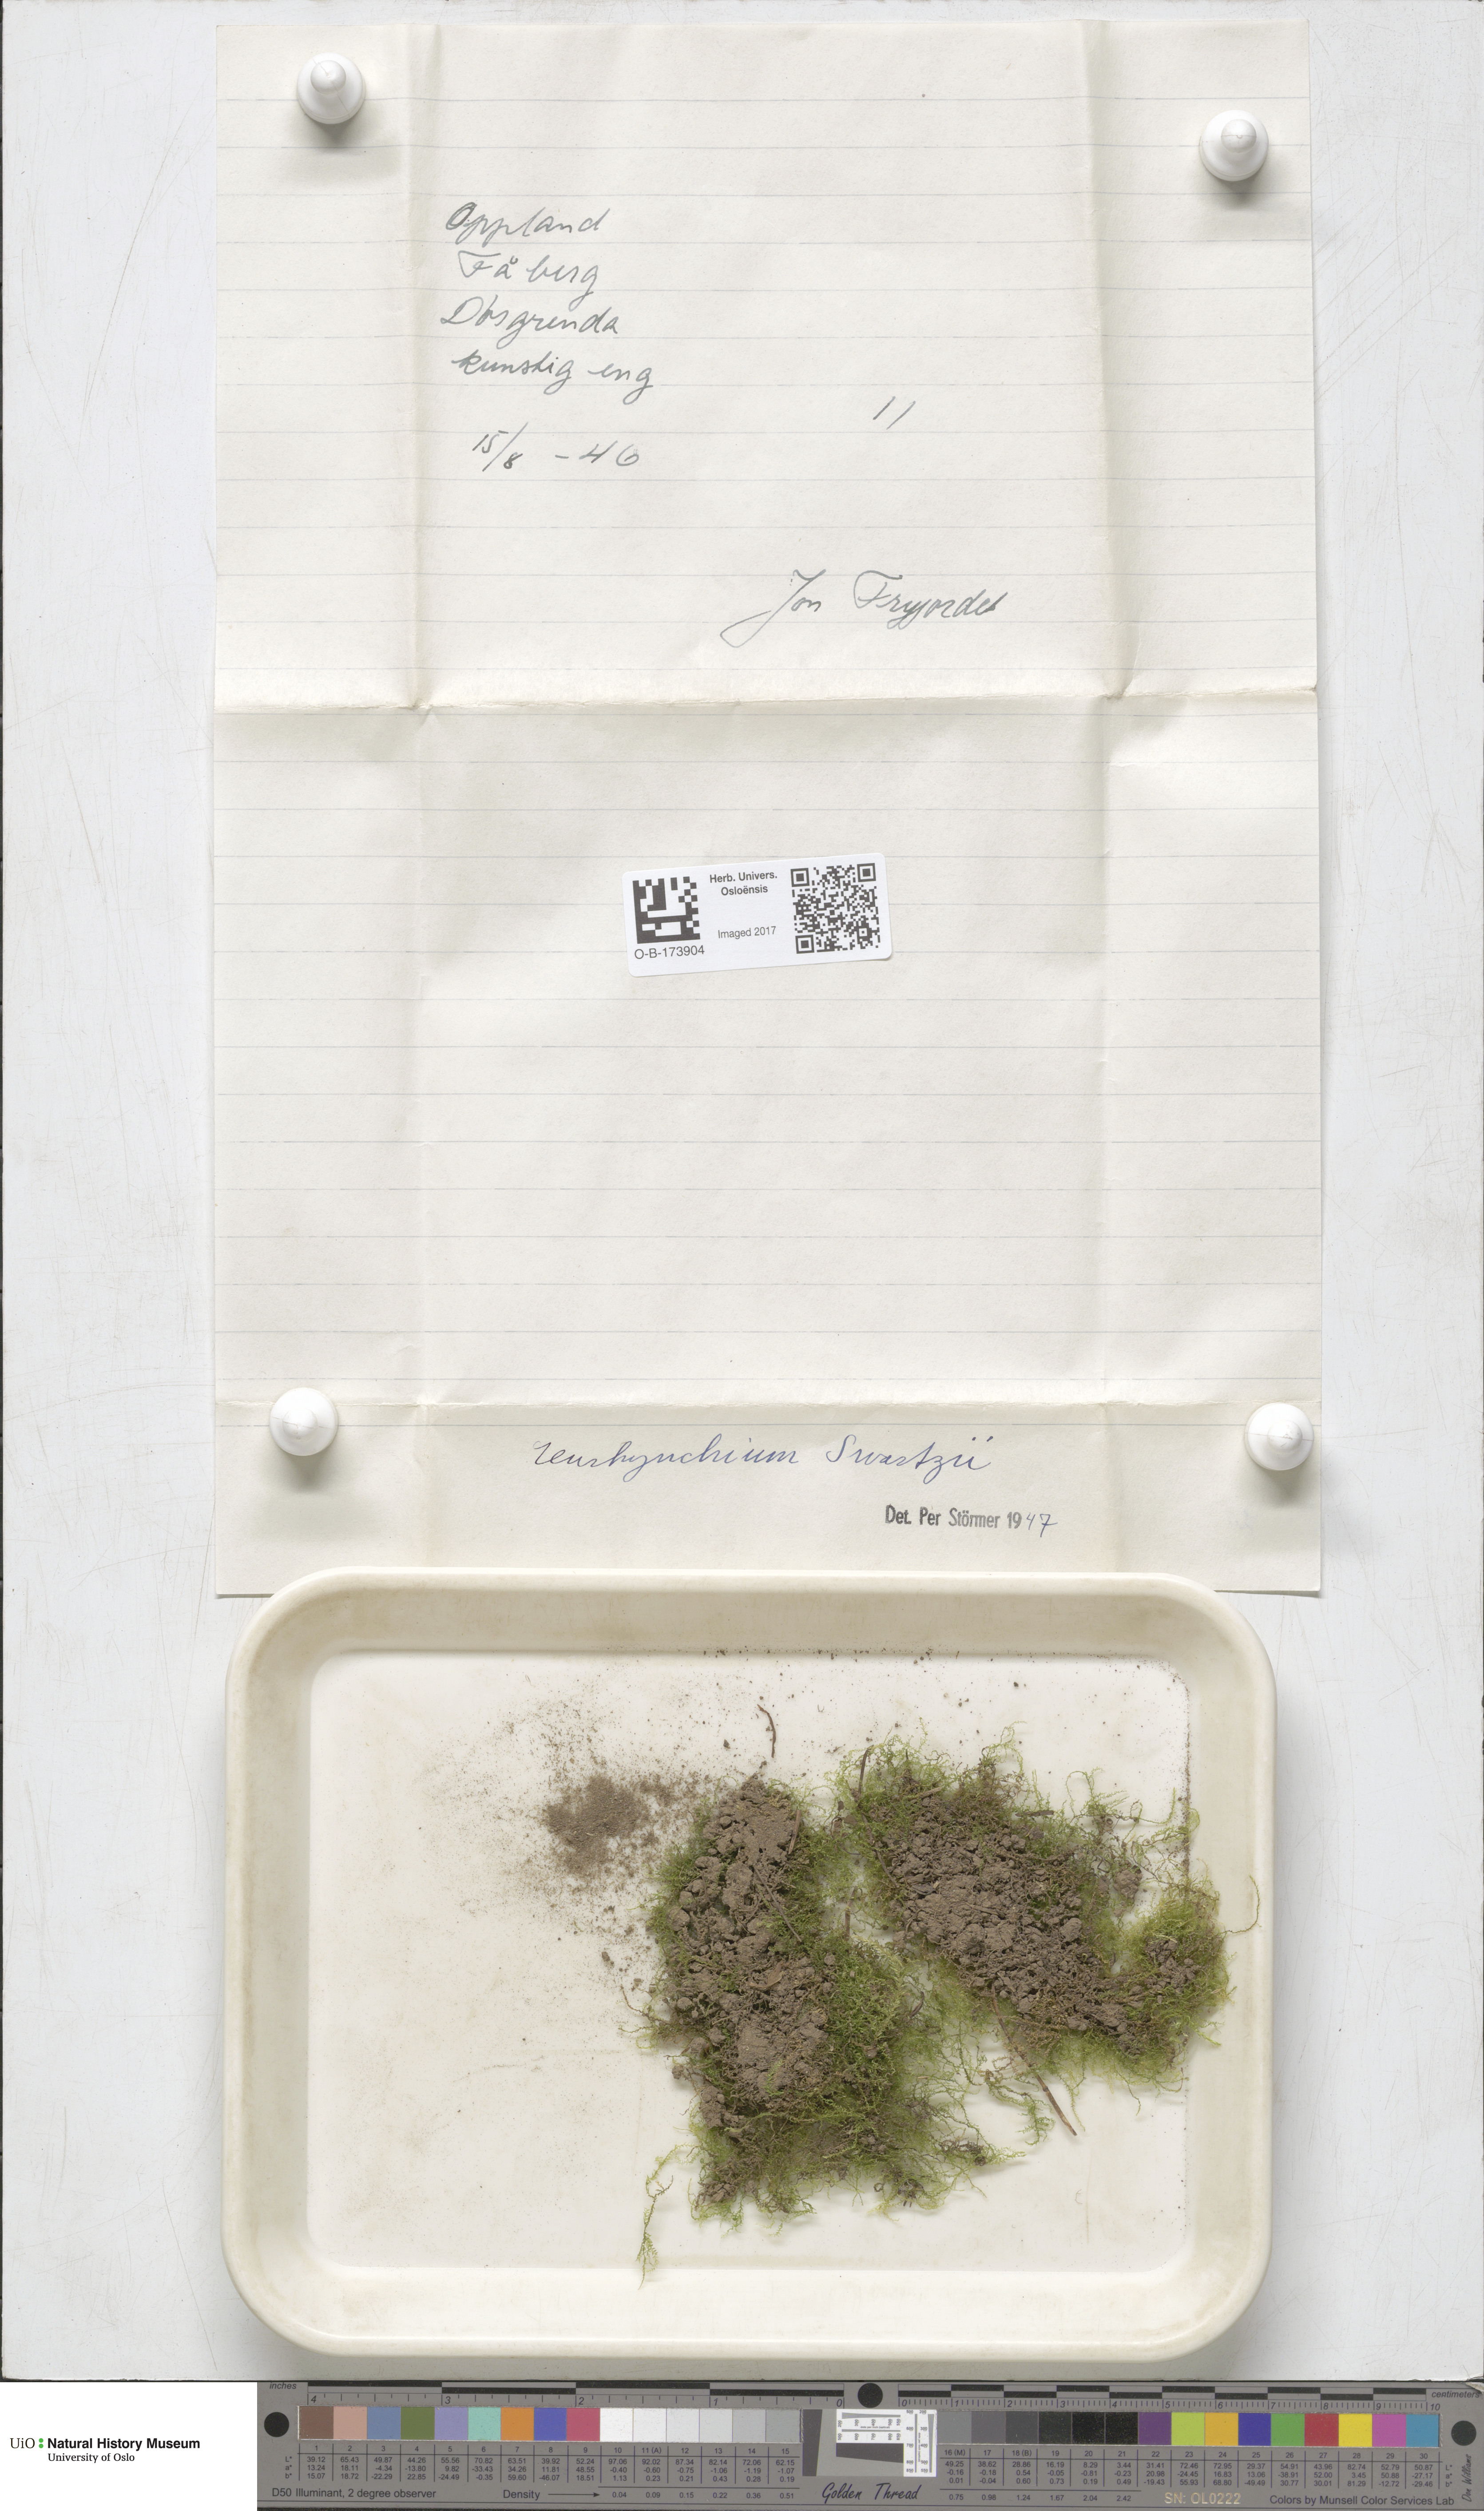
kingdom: Plantae
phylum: Bryophyta
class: Bryopsida
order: Hypnales
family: Brachytheciaceae
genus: Oxyrrhynchium
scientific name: Oxyrrhynchium hians
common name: Spreading beaked moss
